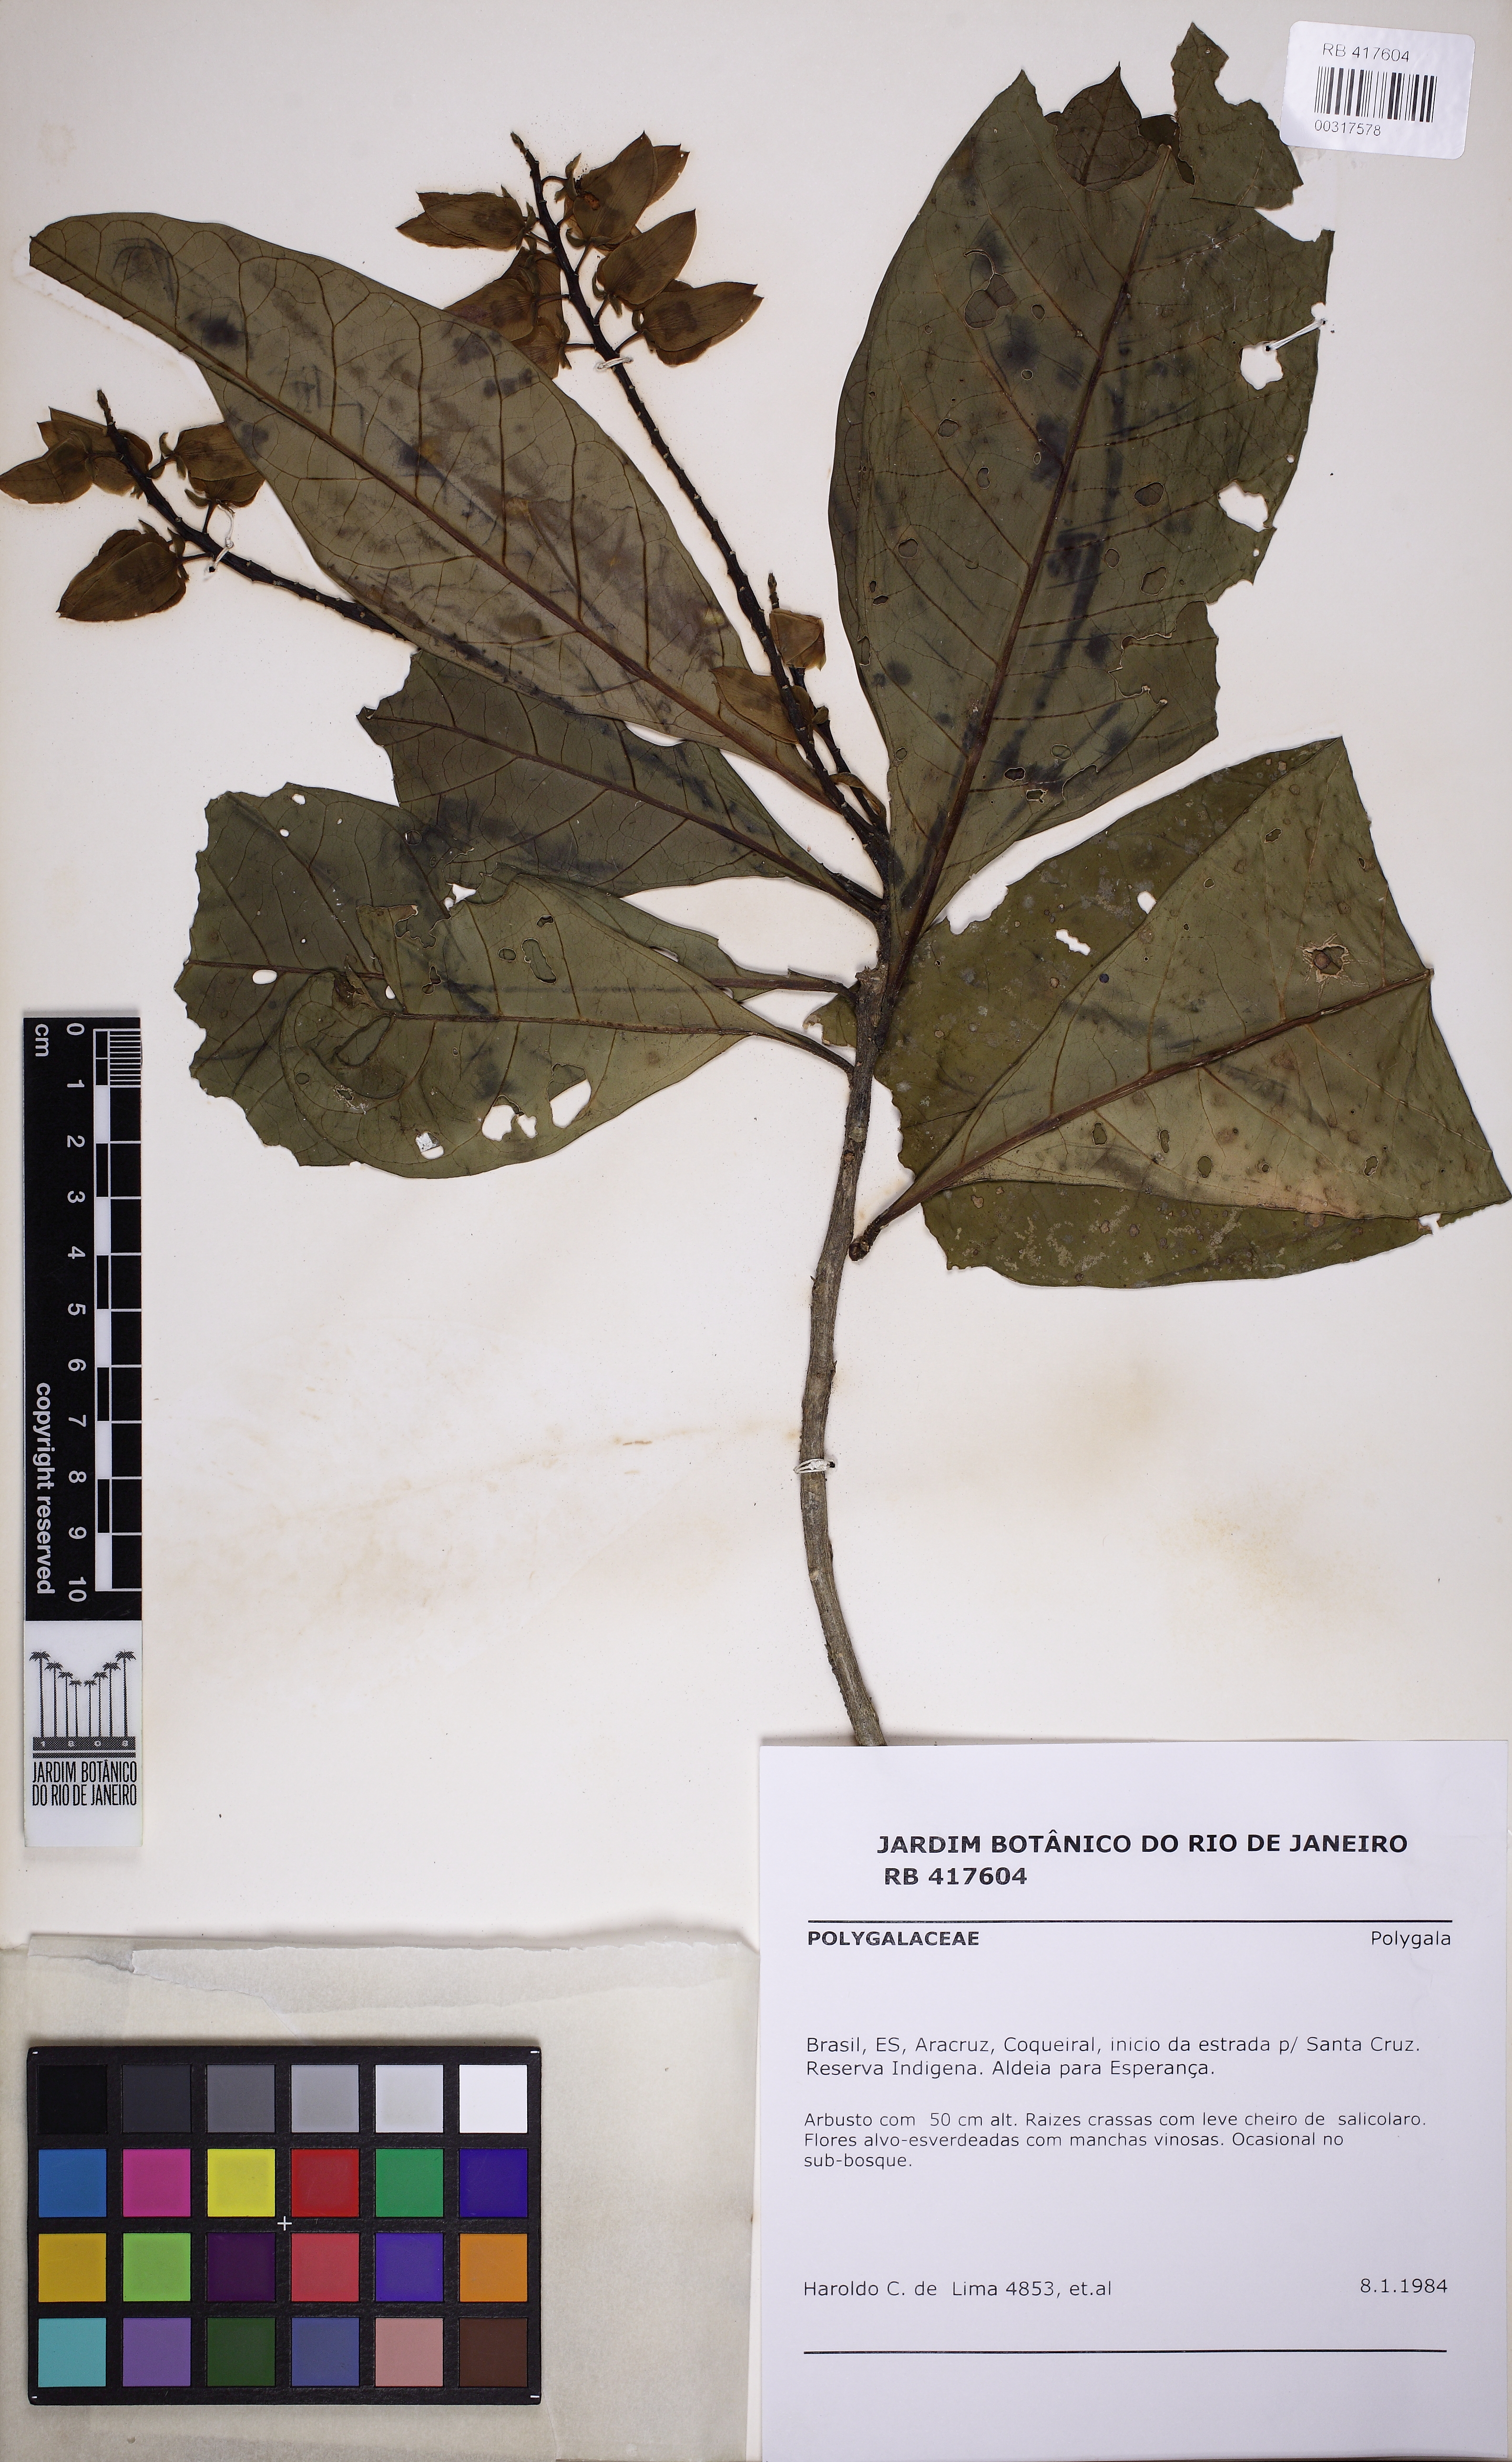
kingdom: Plantae
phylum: Tracheophyta
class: Magnoliopsida
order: Fabales
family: Polygalaceae
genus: Caamembeca
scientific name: Caamembeca
